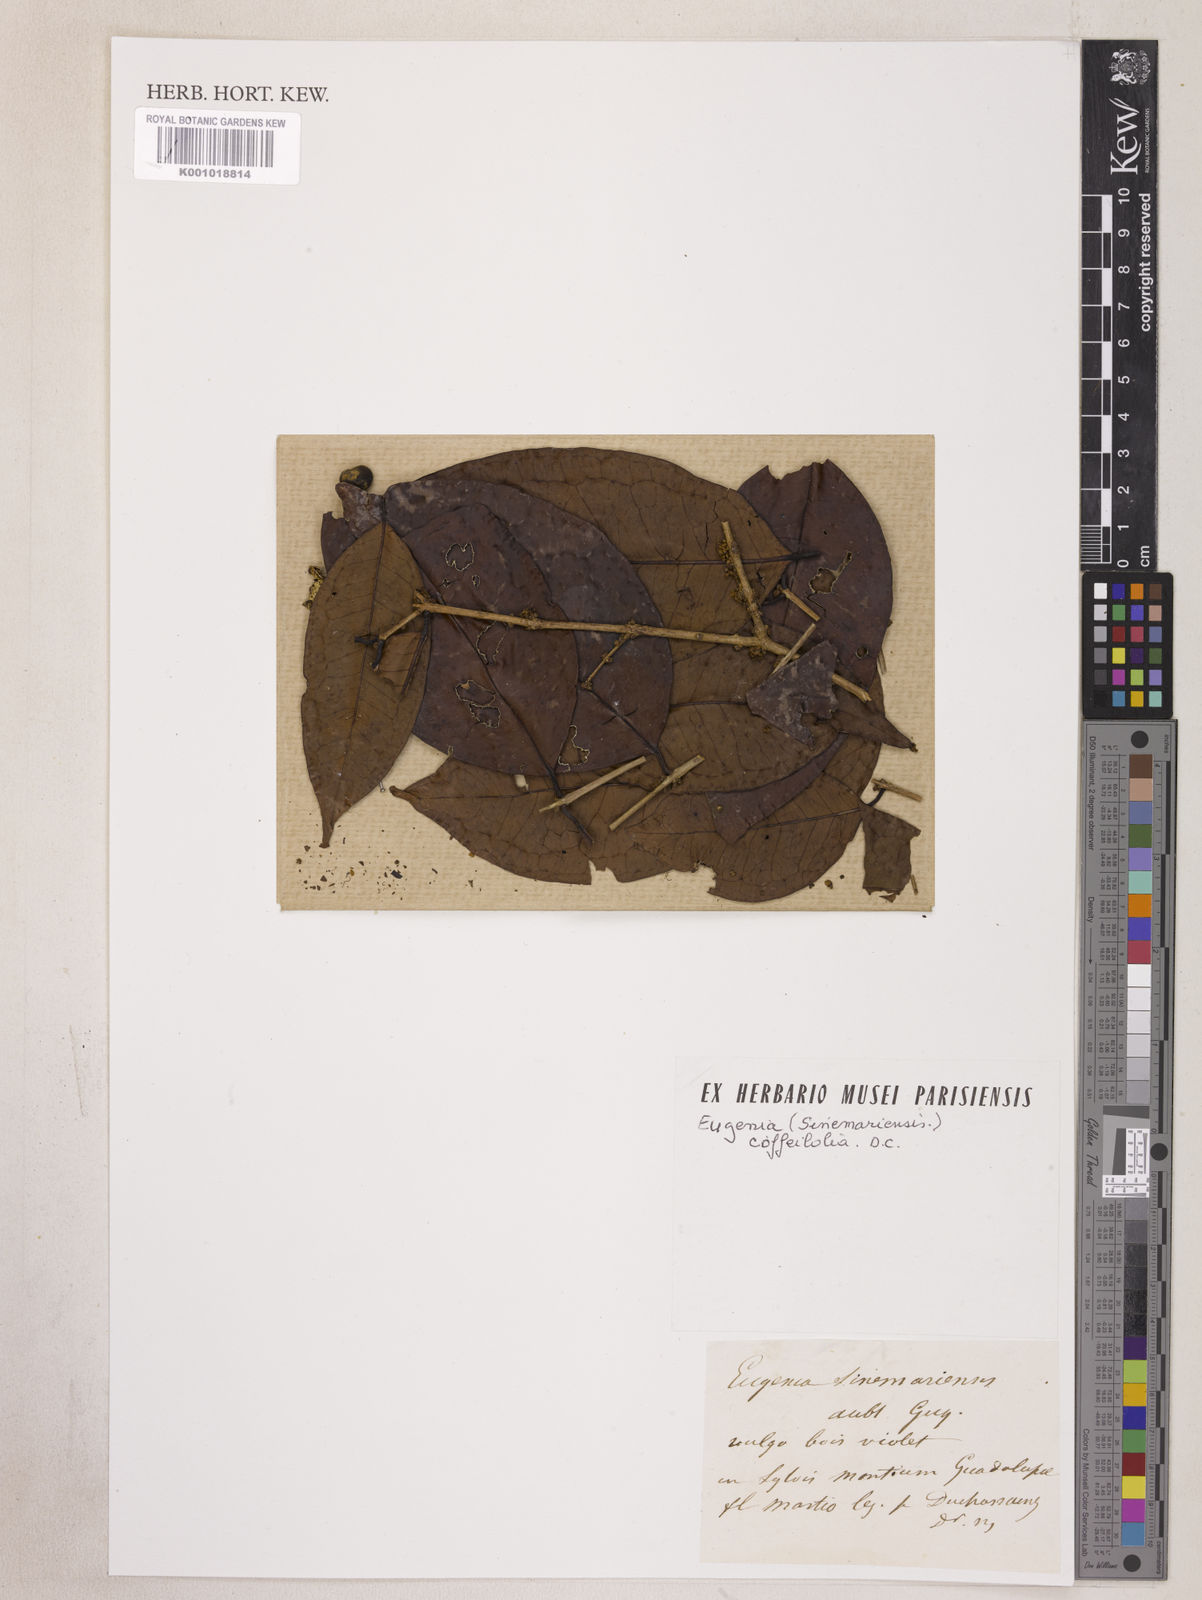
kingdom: Plantae
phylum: Tracheophyta
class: Magnoliopsida
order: Myrtales
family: Myrtaceae
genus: Eugenia
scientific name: Eugenia coffeifolia
